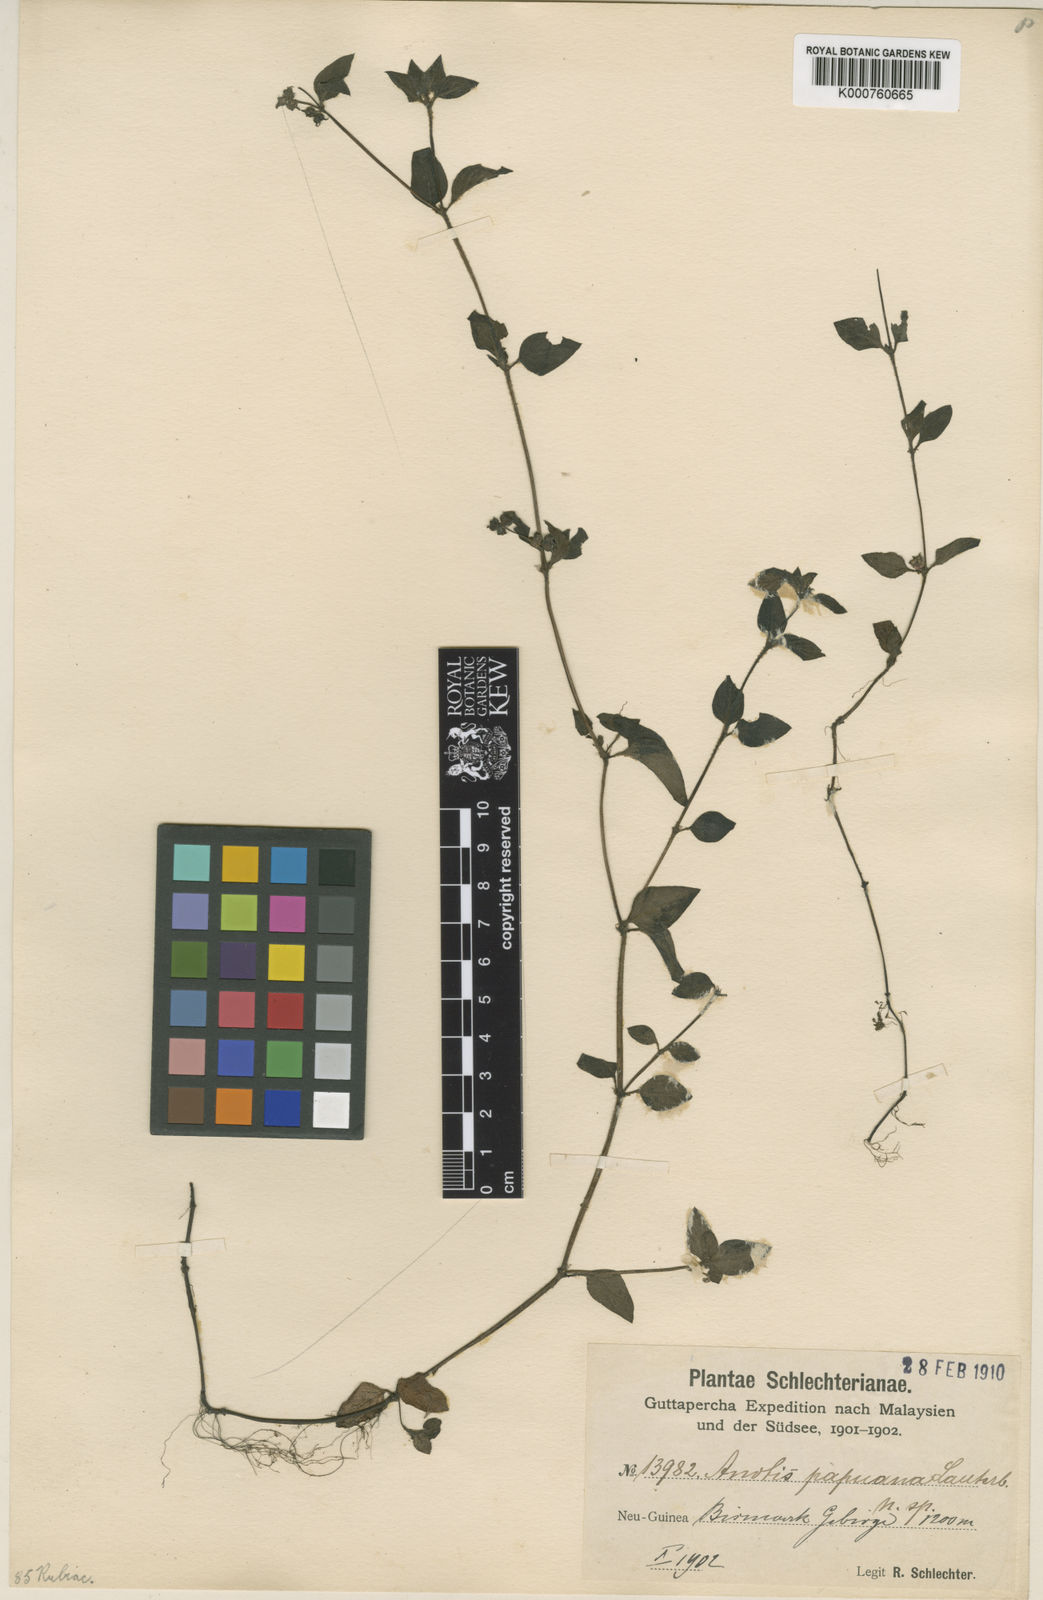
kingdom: Plantae
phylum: Tracheophyta
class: Magnoliopsida
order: Gentianales
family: Rubiaceae
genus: Neanotis
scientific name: Neanotis hirsuta
